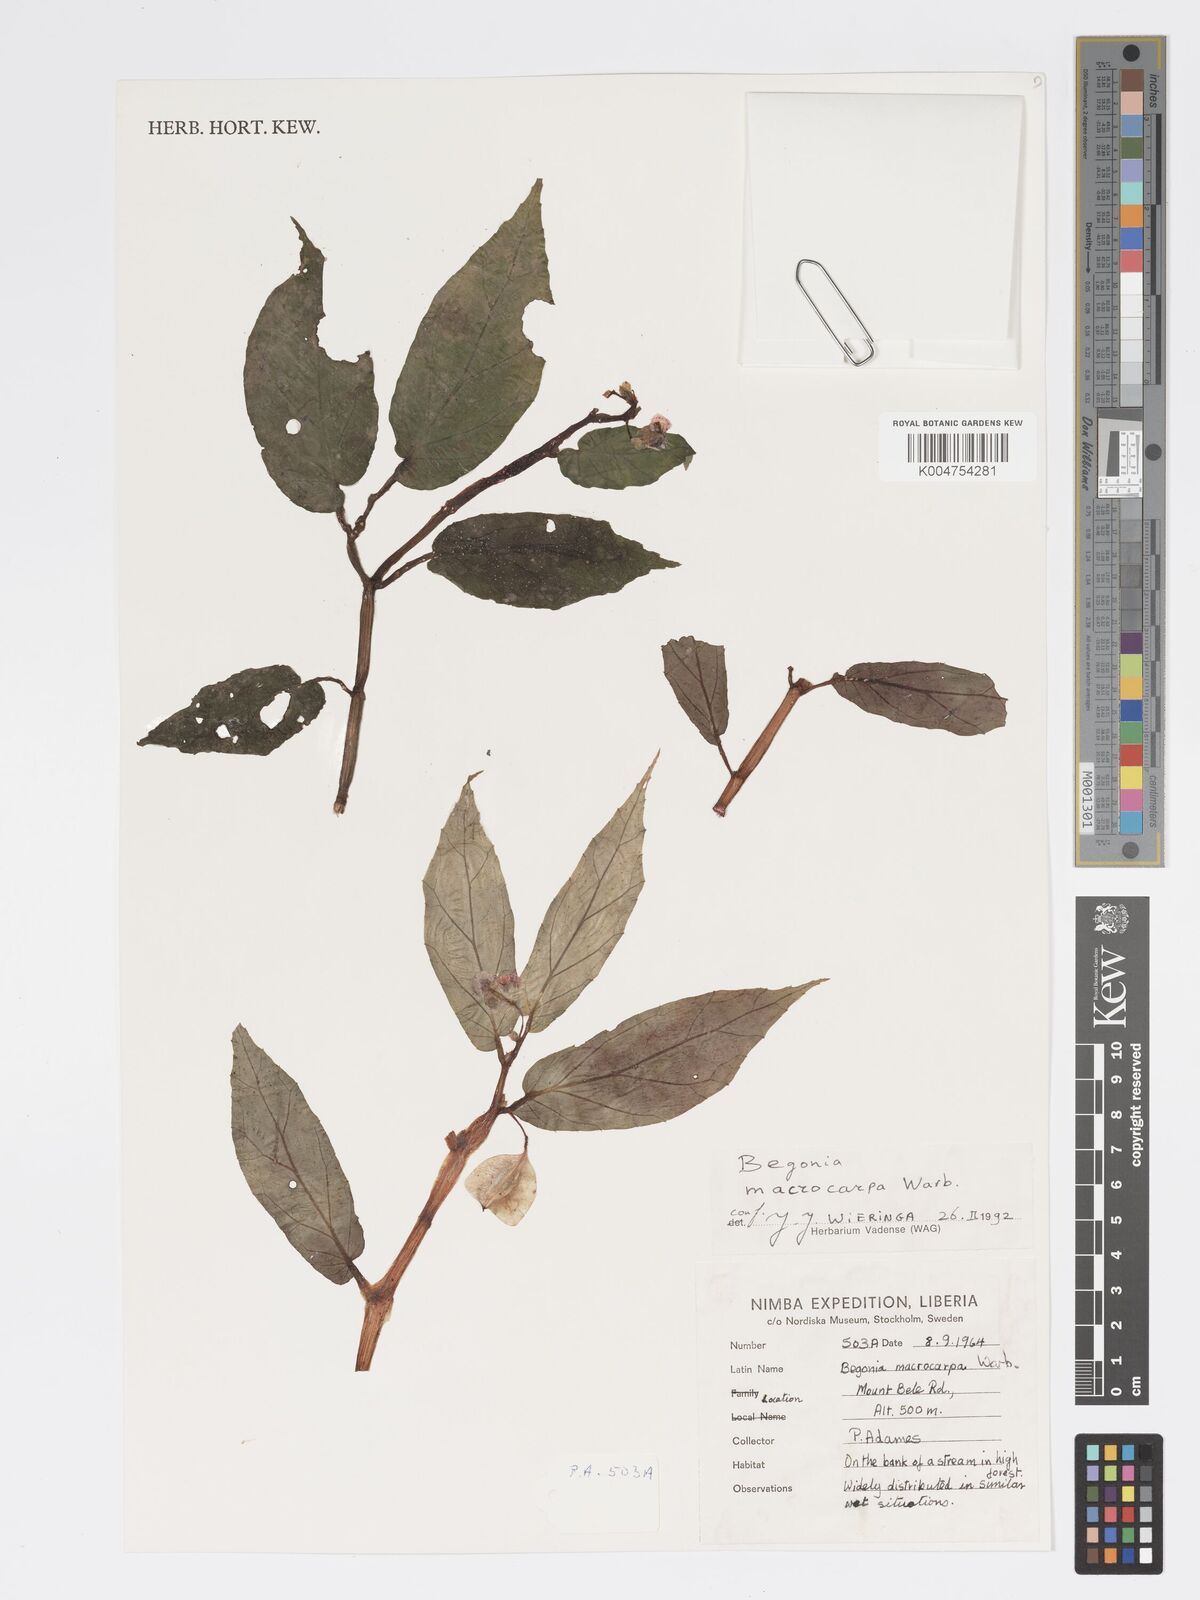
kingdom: Plantae
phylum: Tracheophyta
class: Magnoliopsida
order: Cucurbitales
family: Begoniaceae
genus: Begonia
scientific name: Begonia macrocarpa
